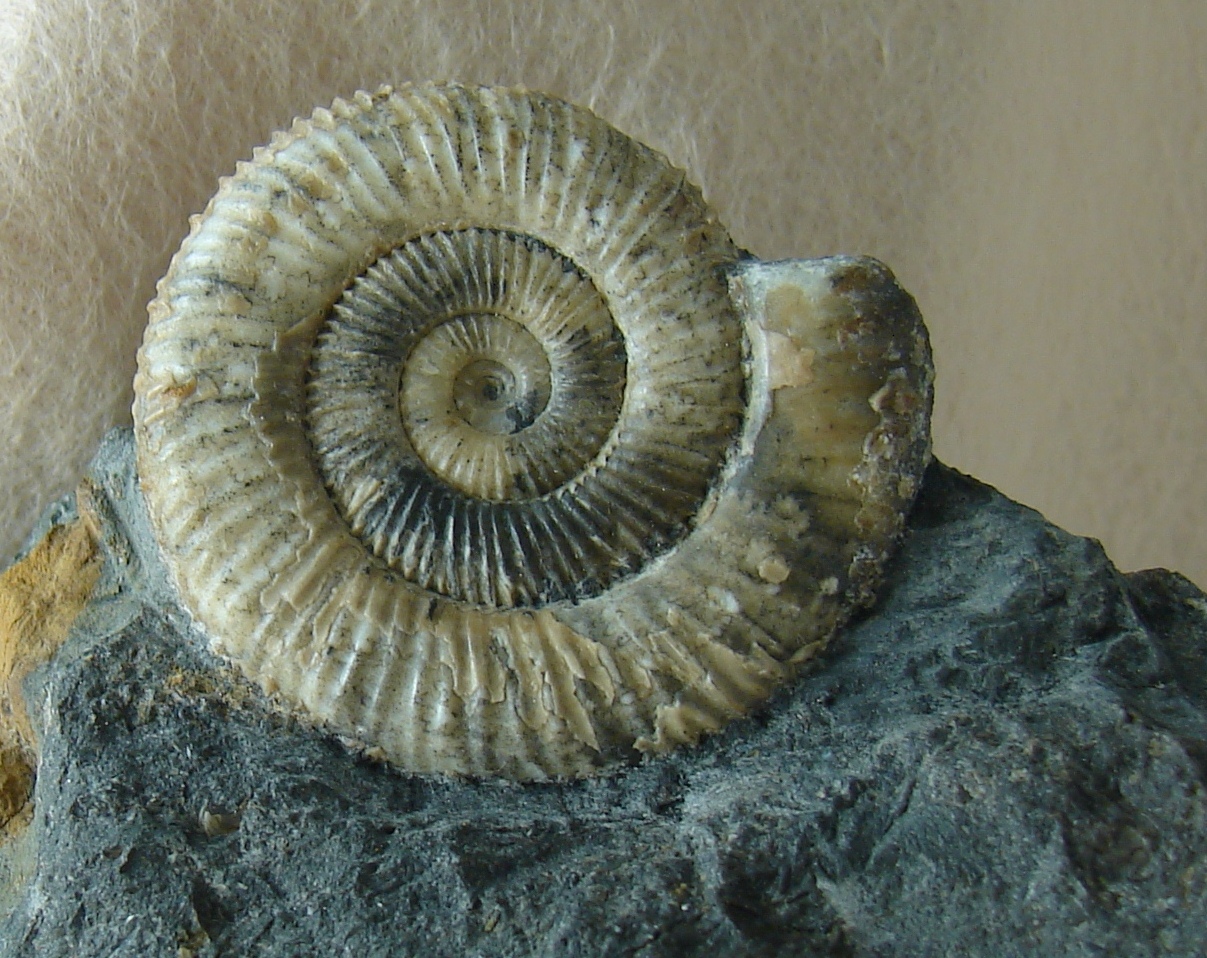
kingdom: Animalia
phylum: Mollusca
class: Cephalopoda
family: Dactylioceratidae
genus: Dactylioceras
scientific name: Dactylioceras directum
